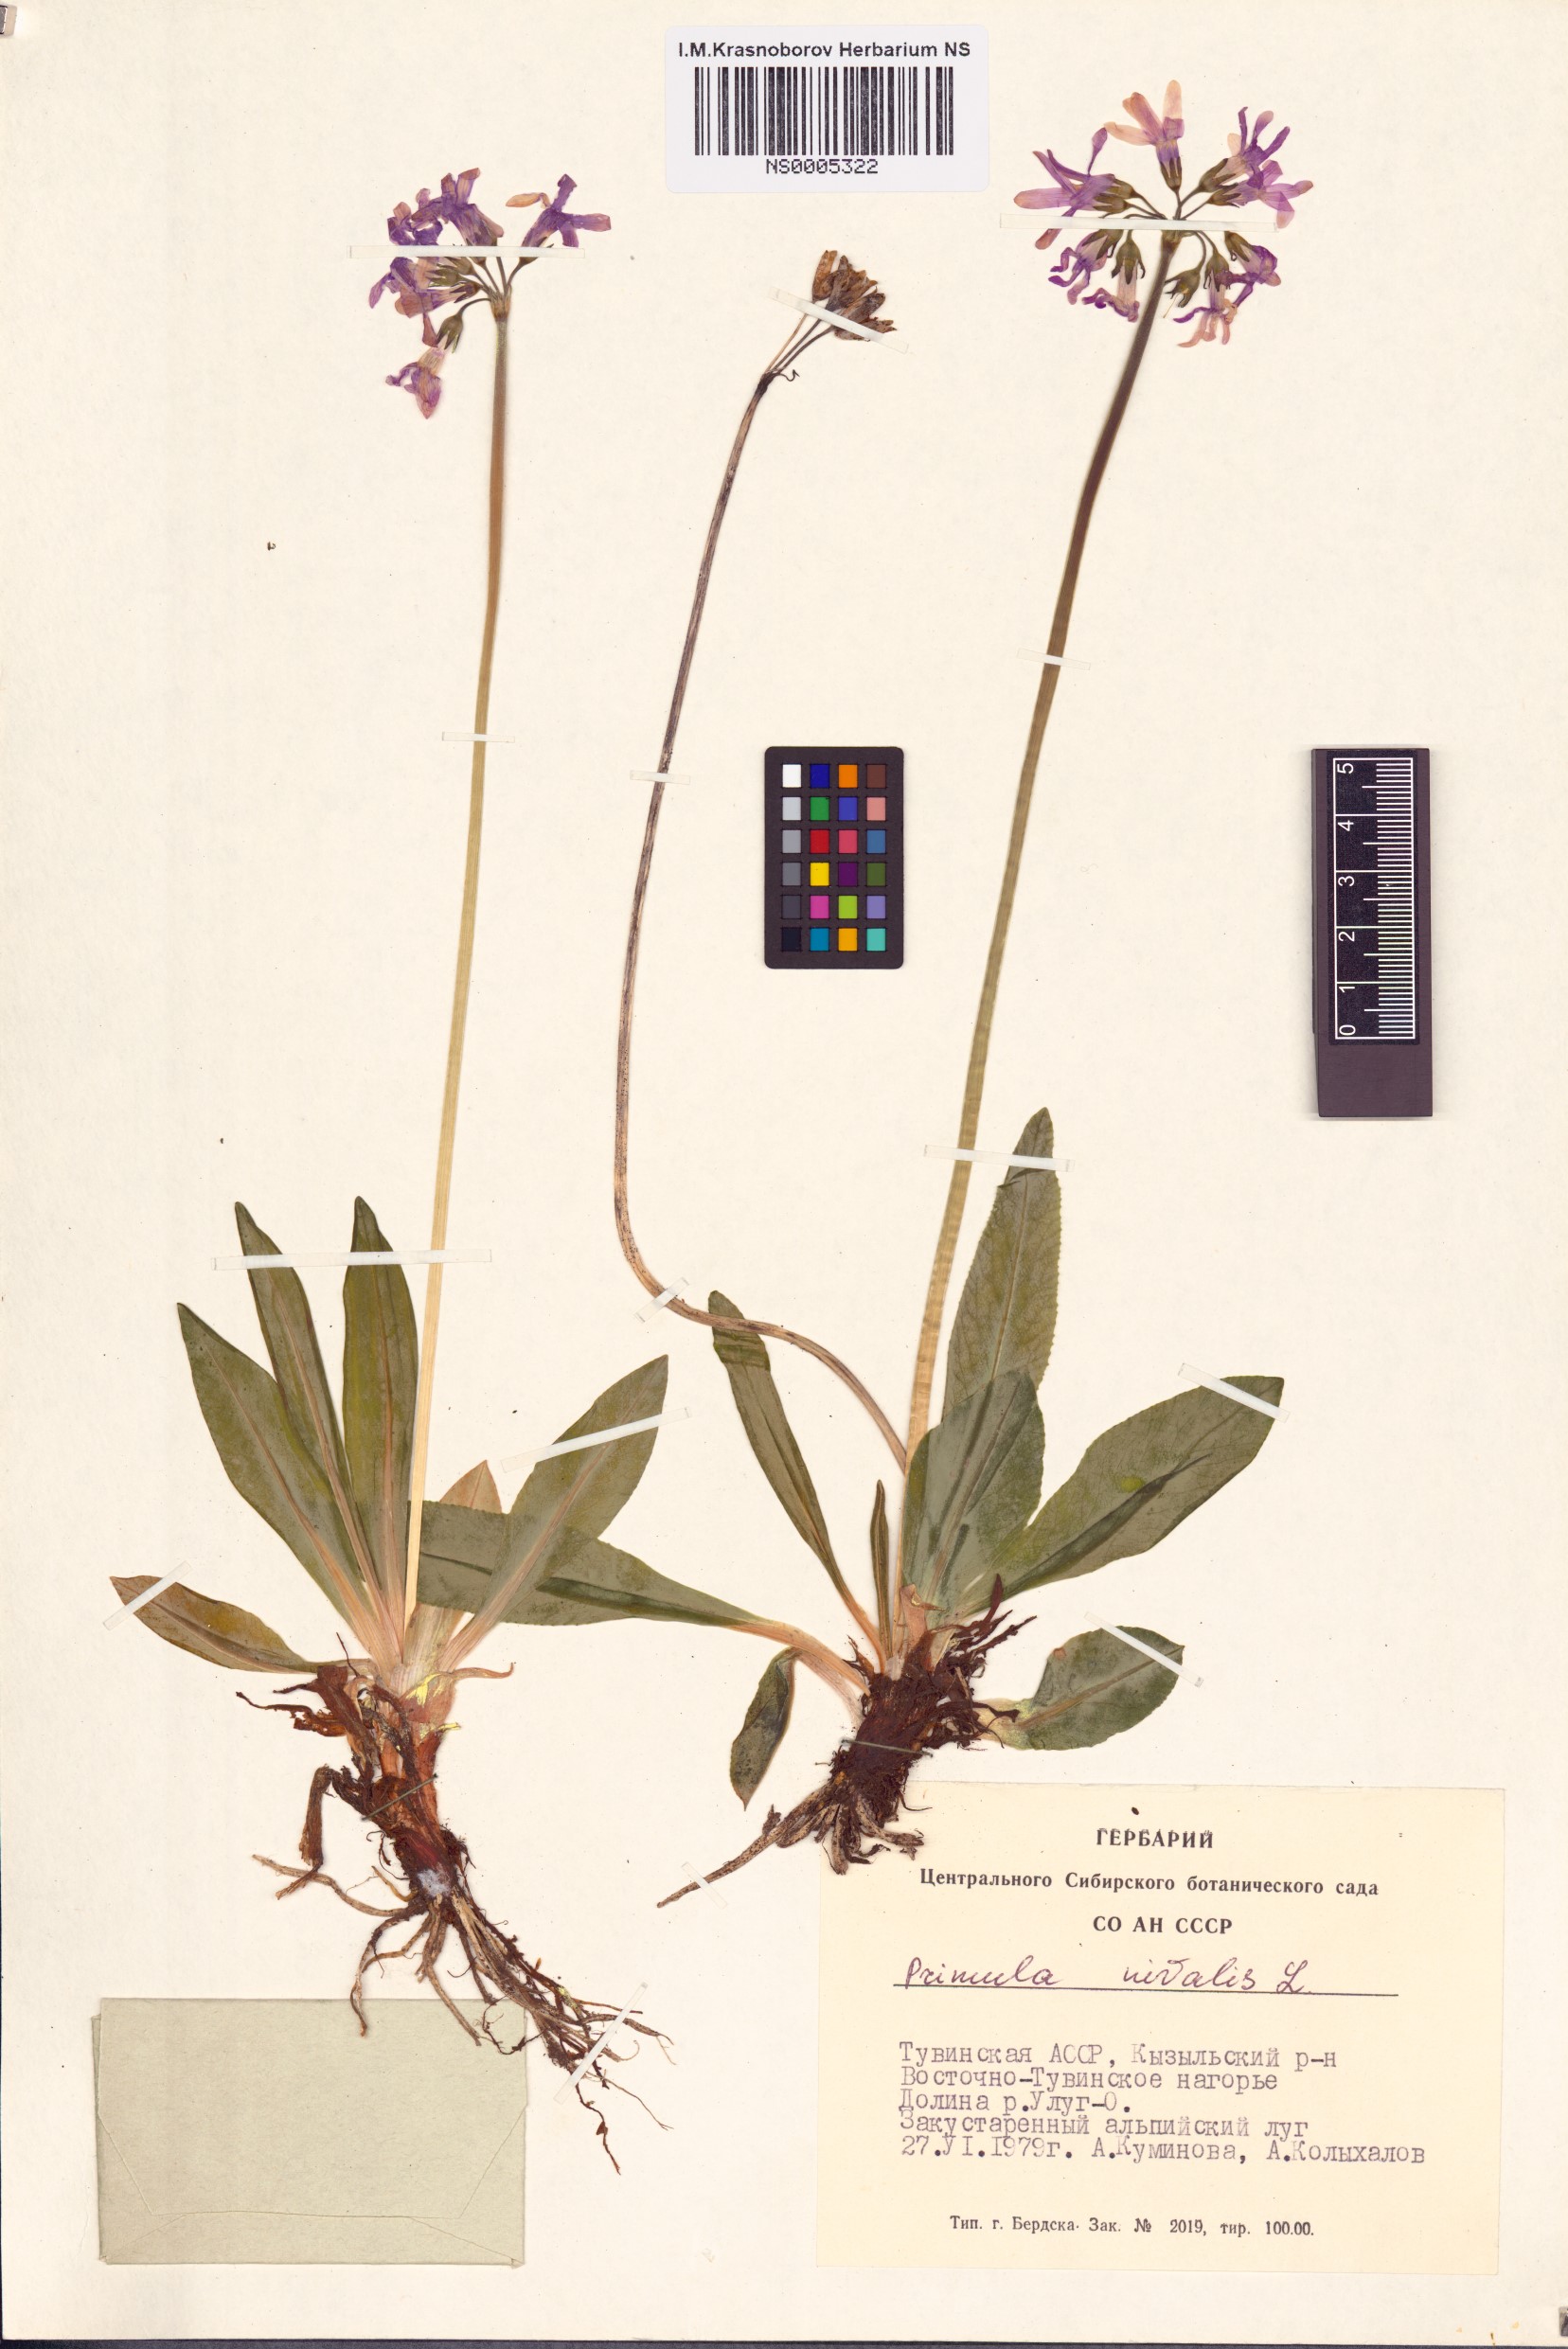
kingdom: Plantae
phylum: Tracheophyta
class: Magnoliopsida
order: Ericales
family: Primulaceae
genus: Primula
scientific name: Primula nivalis
